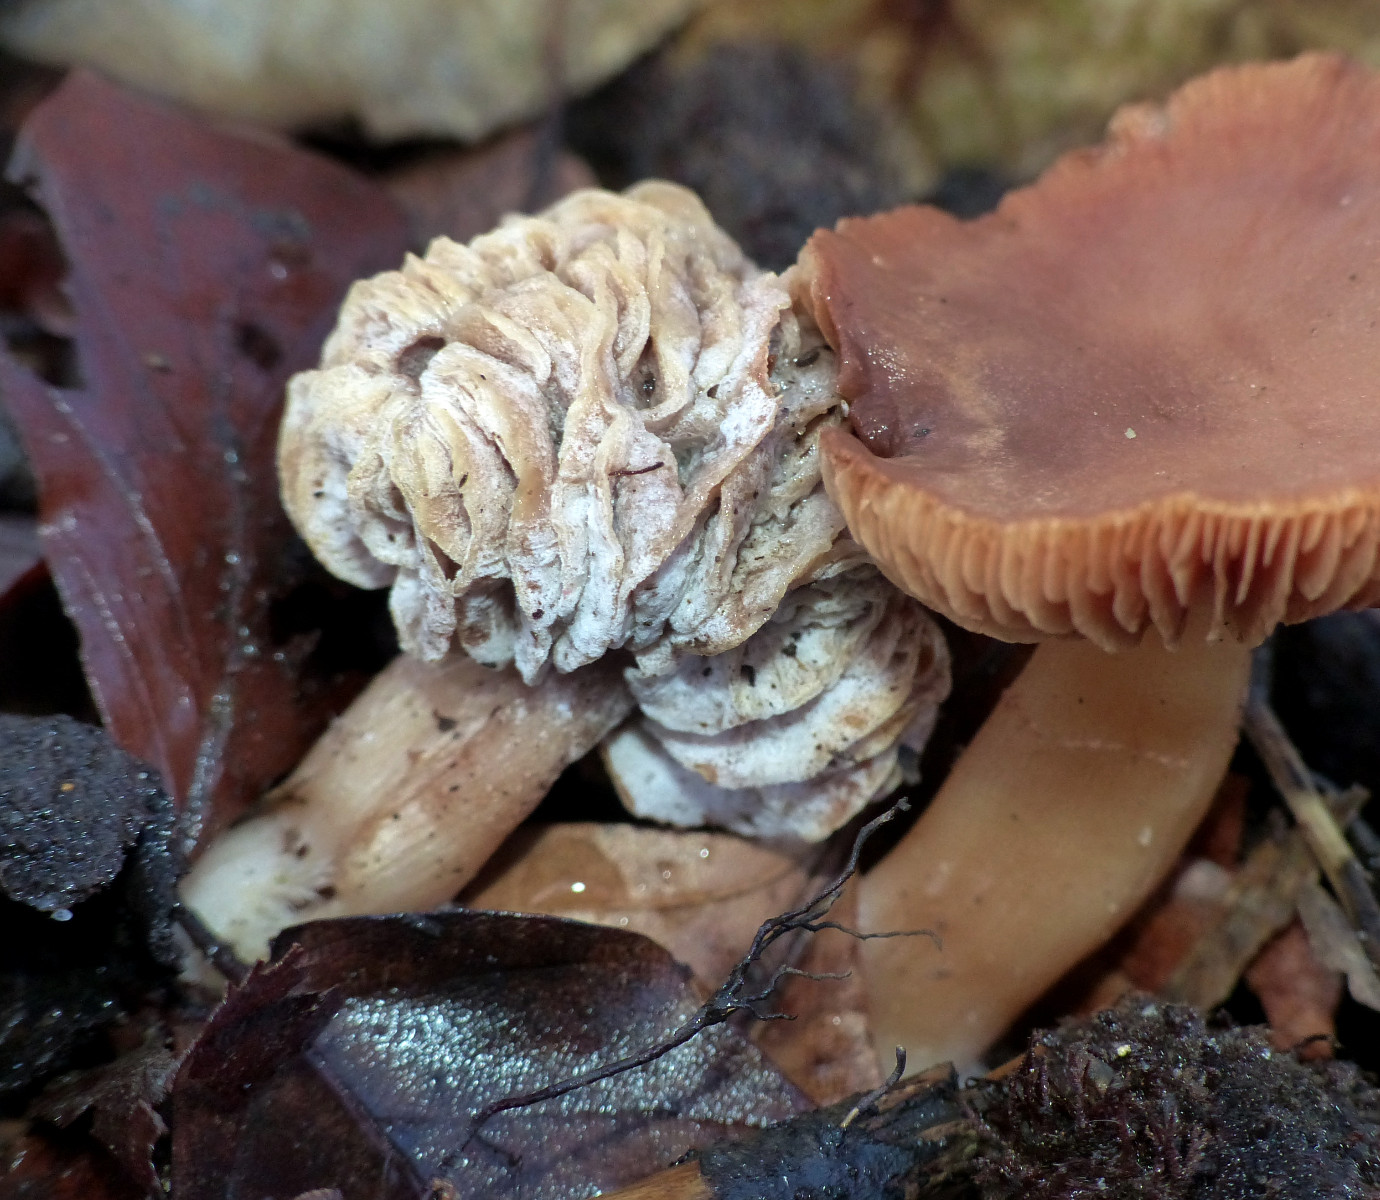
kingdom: Fungi
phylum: Ascomycota
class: Sordariomycetes
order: Hypocreales
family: Hypocreaceae
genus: Hypomyces
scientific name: Hypomyces tubariicola
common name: fnughat-snylteskorpe
